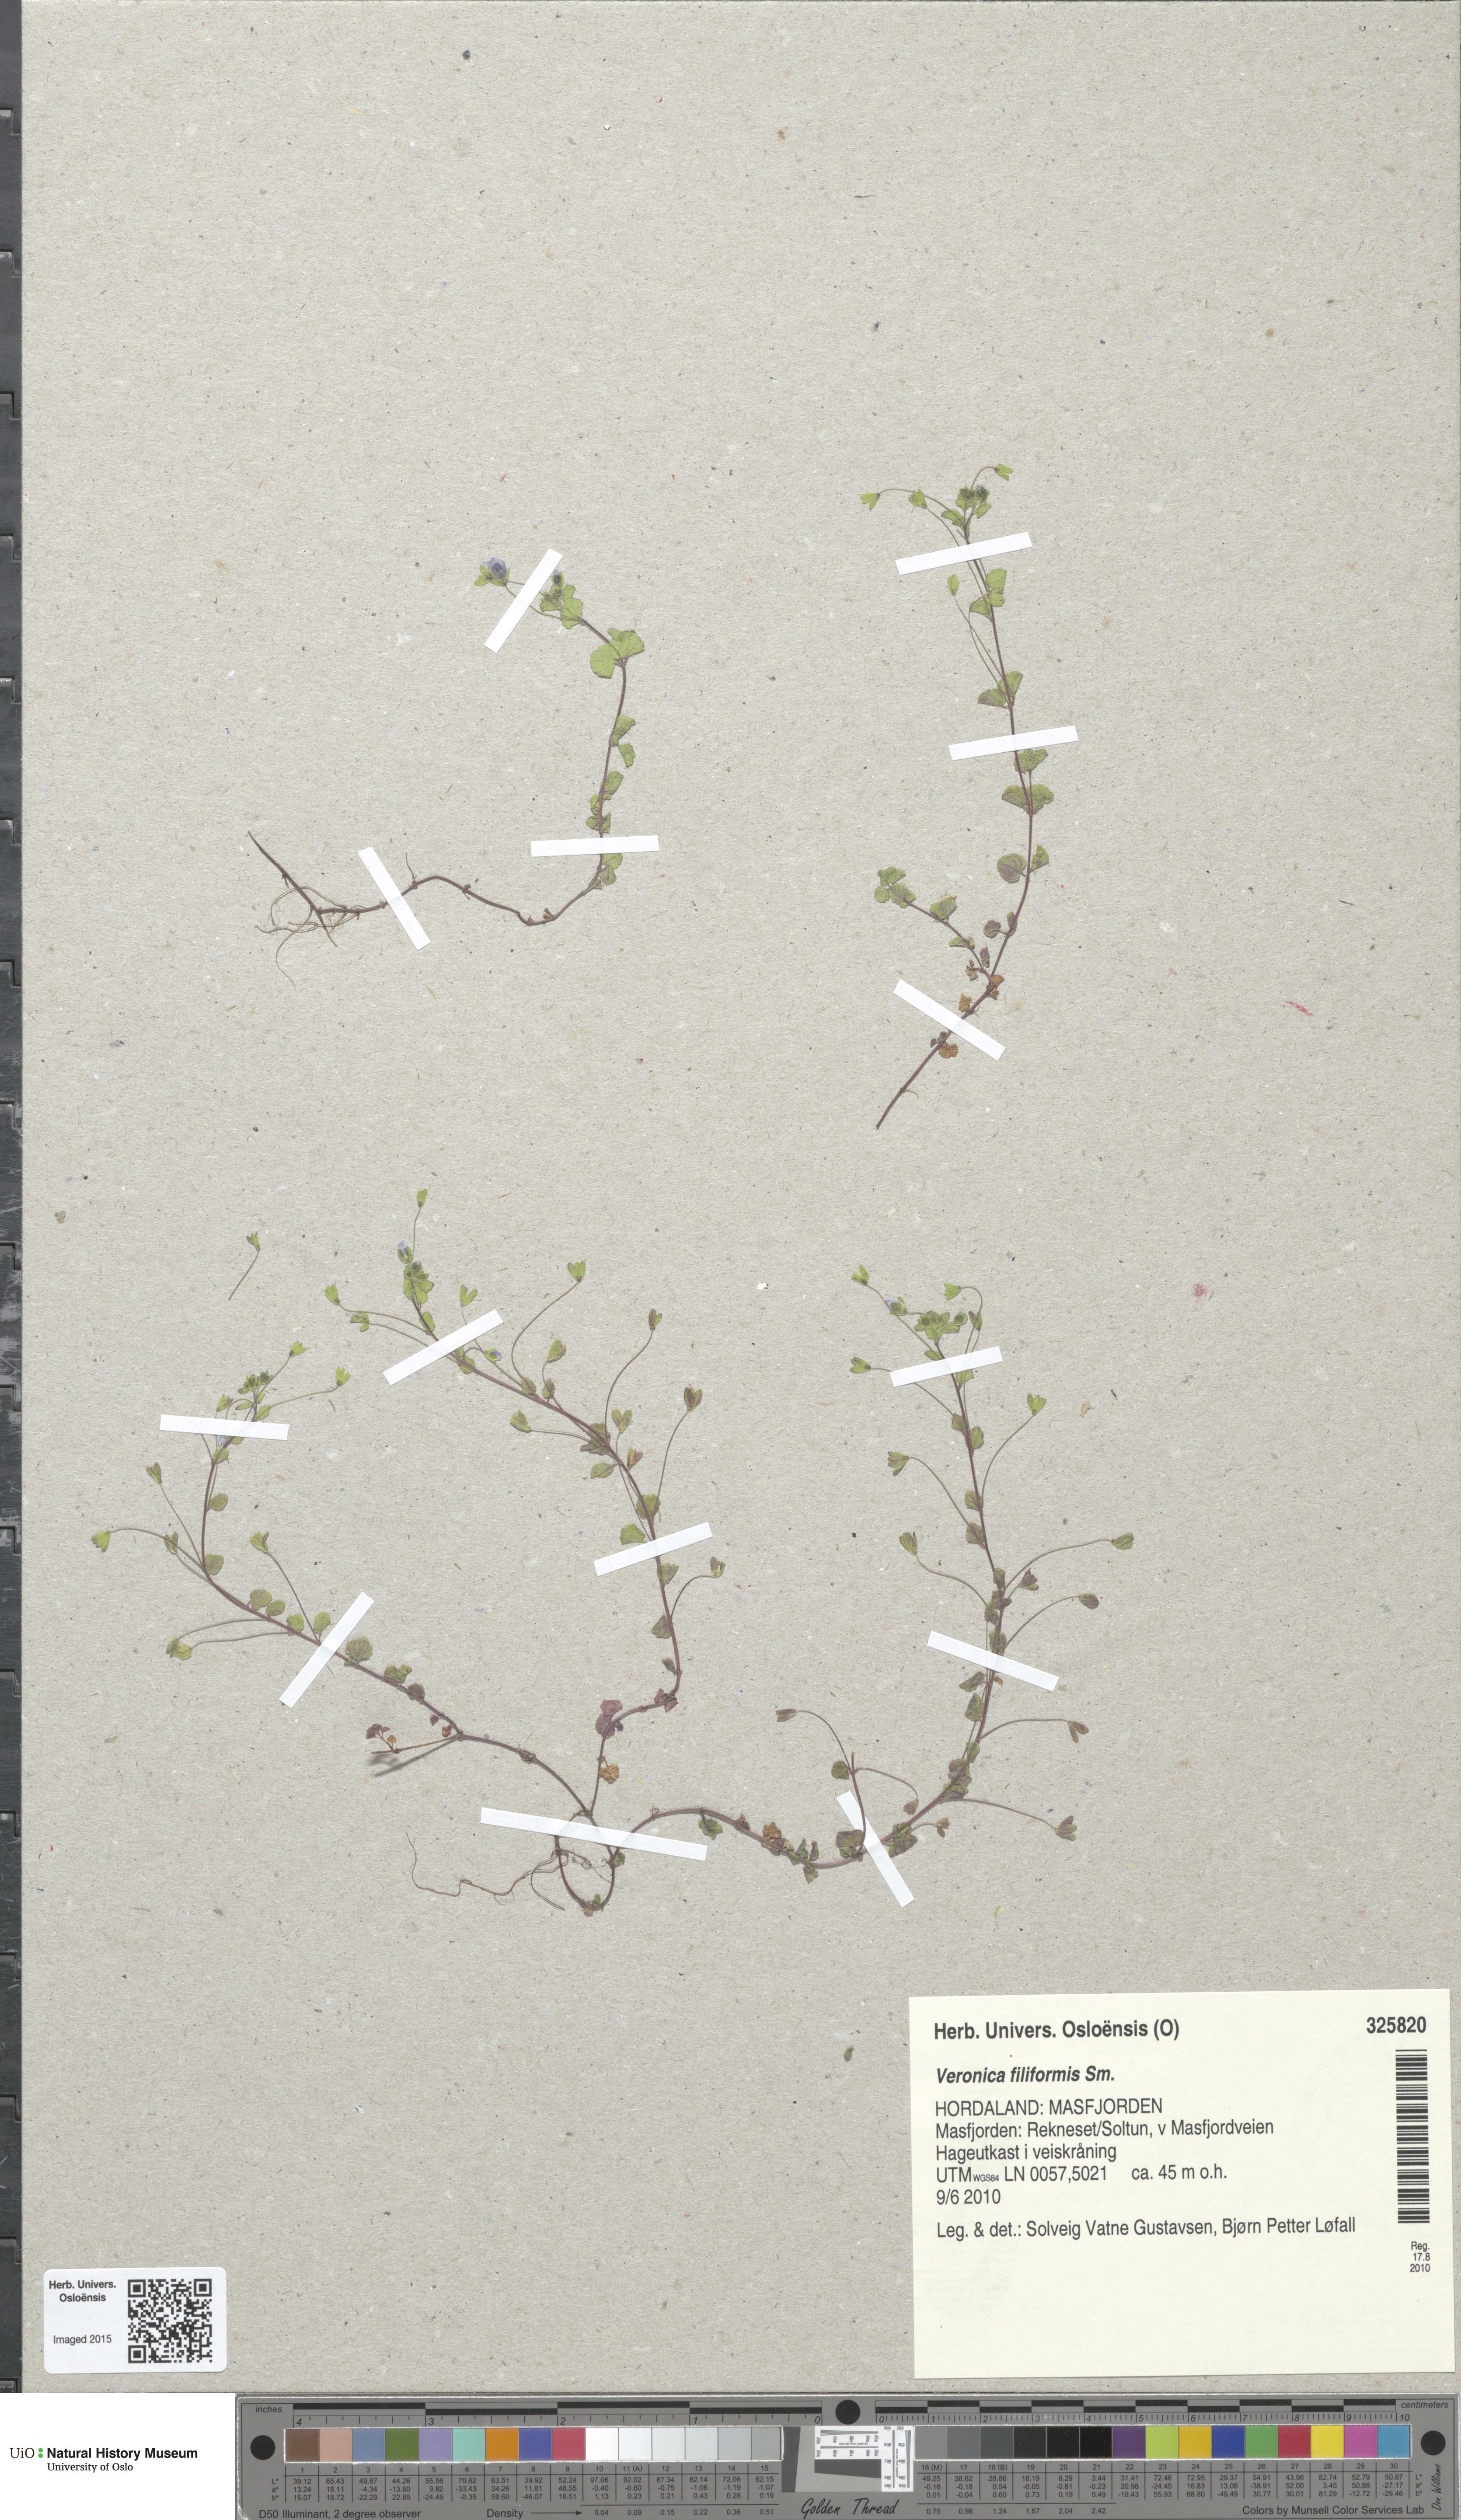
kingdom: Plantae
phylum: Tracheophyta
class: Magnoliopsida
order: Lamiales
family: Plantaginaceae
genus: Veronica
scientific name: Veronica filiformis
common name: Slender speedwell
